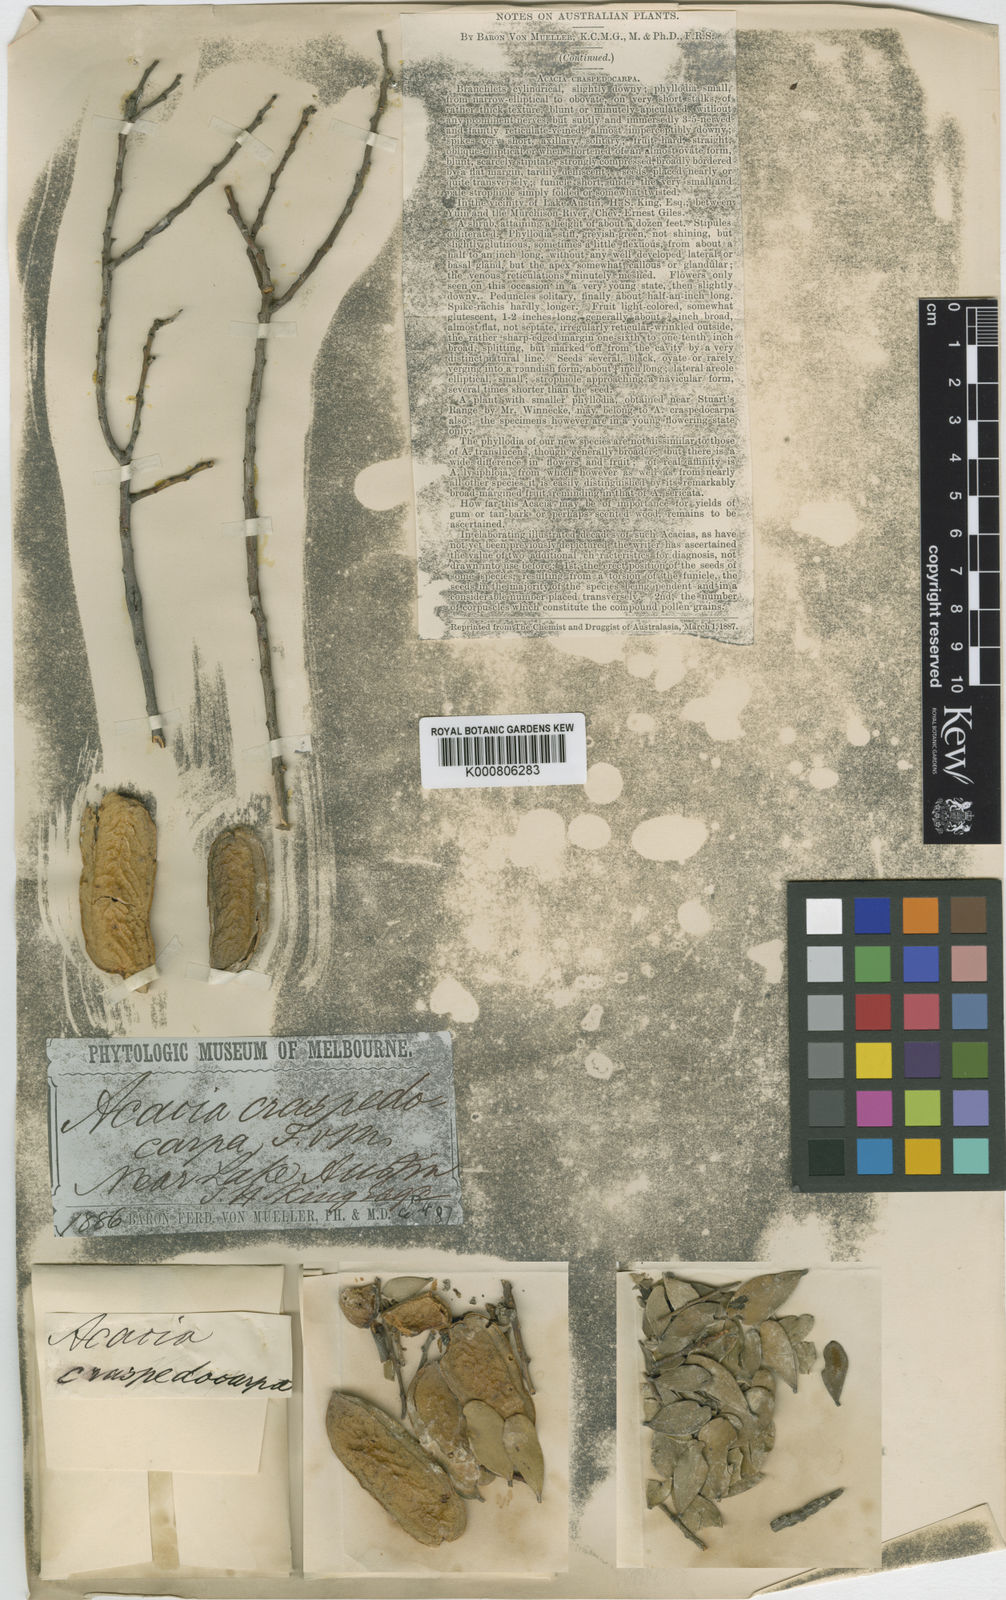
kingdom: Plantae
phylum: Tracheophyta
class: Magnoliopsida
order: Fabales
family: Fabaceae
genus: Acacia
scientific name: Acacia craspedocarpa
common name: Hop mulga
